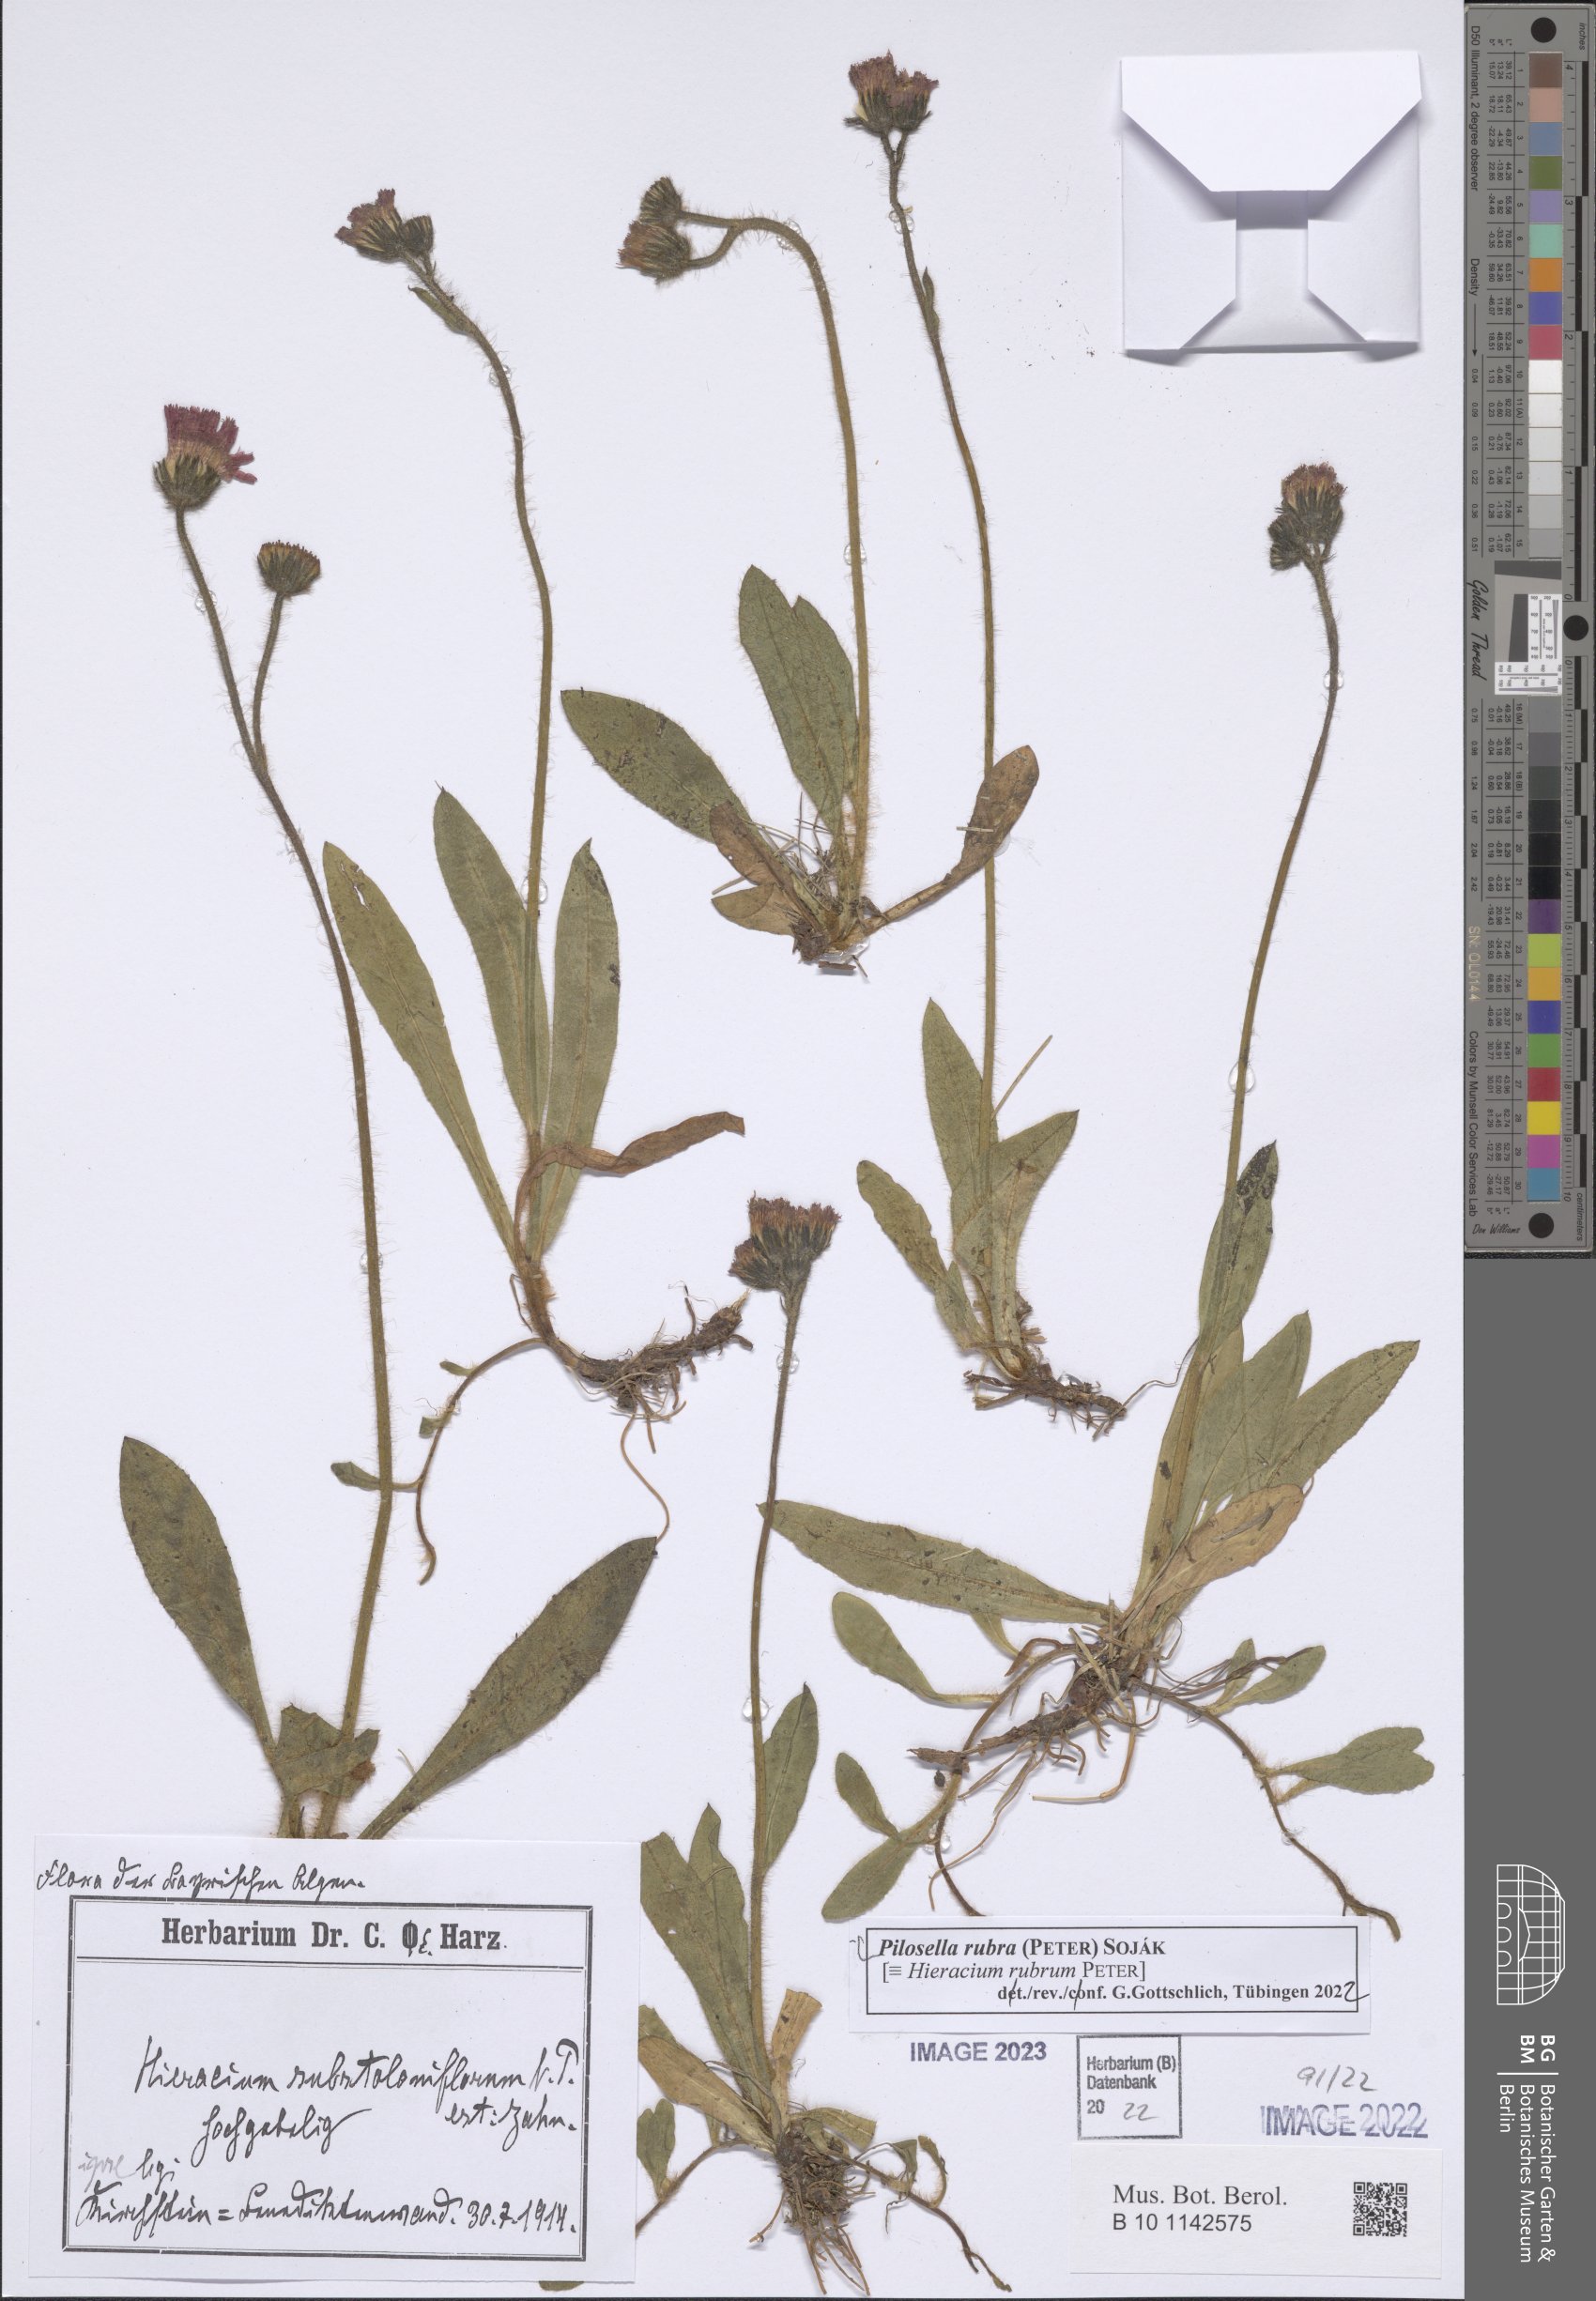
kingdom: Plantae
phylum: Tracheophyta
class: Magnoliopsida
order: Asterales
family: Asteraceae
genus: Pilosella
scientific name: Pilosella rubra
